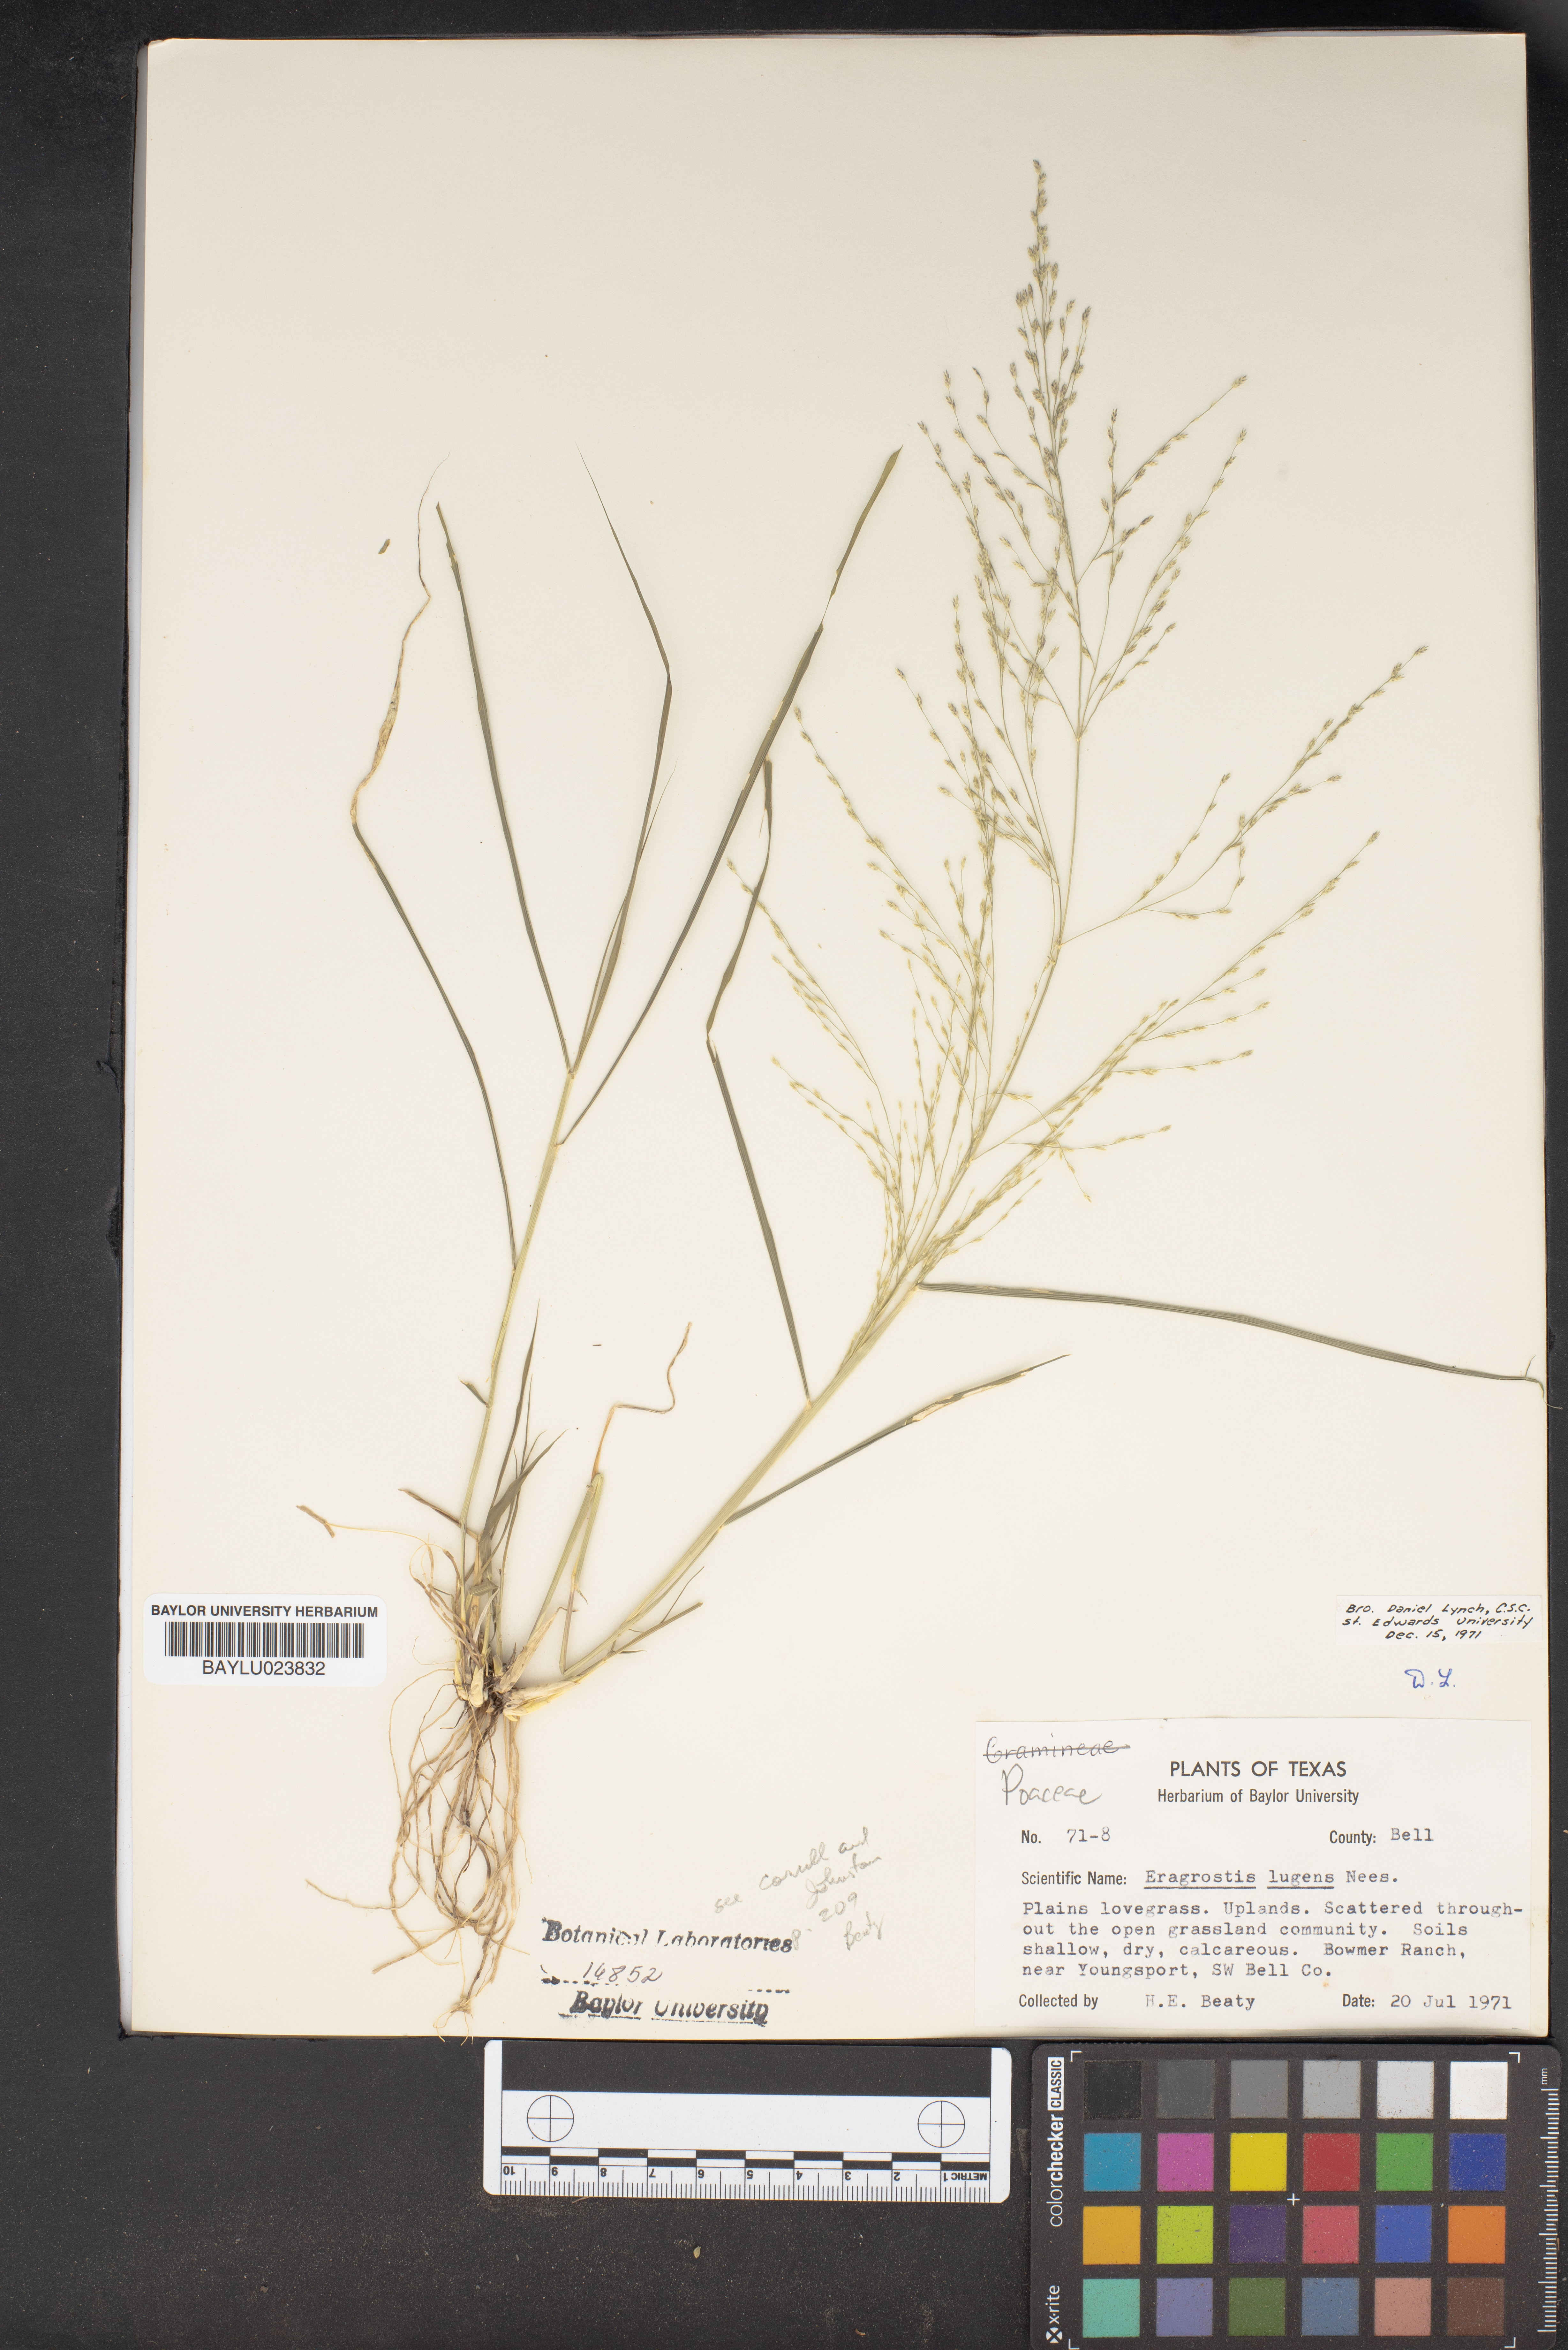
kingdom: Plantae
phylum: Tracheophyta
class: Liliopsida
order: Poales
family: Poaceae
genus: Eragrostis
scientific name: Eragrostis capillaris
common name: Hair-like lovegrass
